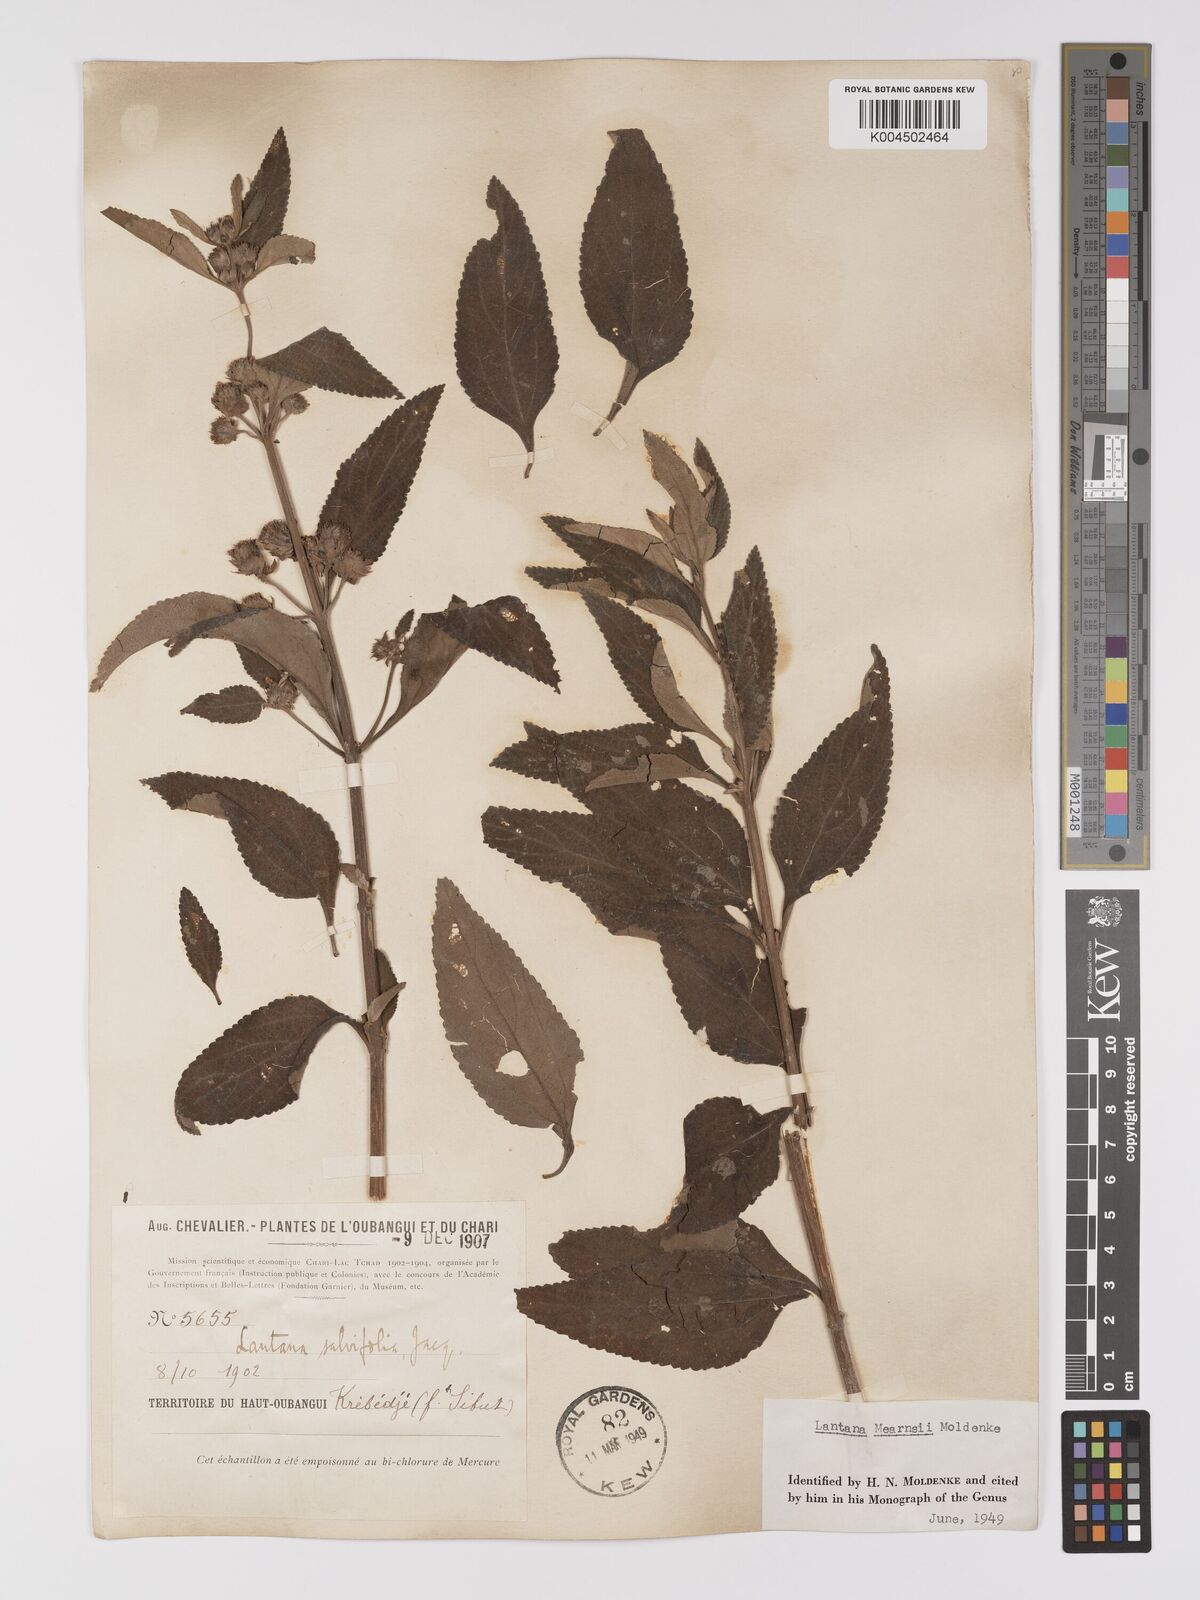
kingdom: Plantae
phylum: Tracheophyta
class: Magnoliopsida
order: Lamiales
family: Verbenaceae
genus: Lantana
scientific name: Lantana ukambensis
